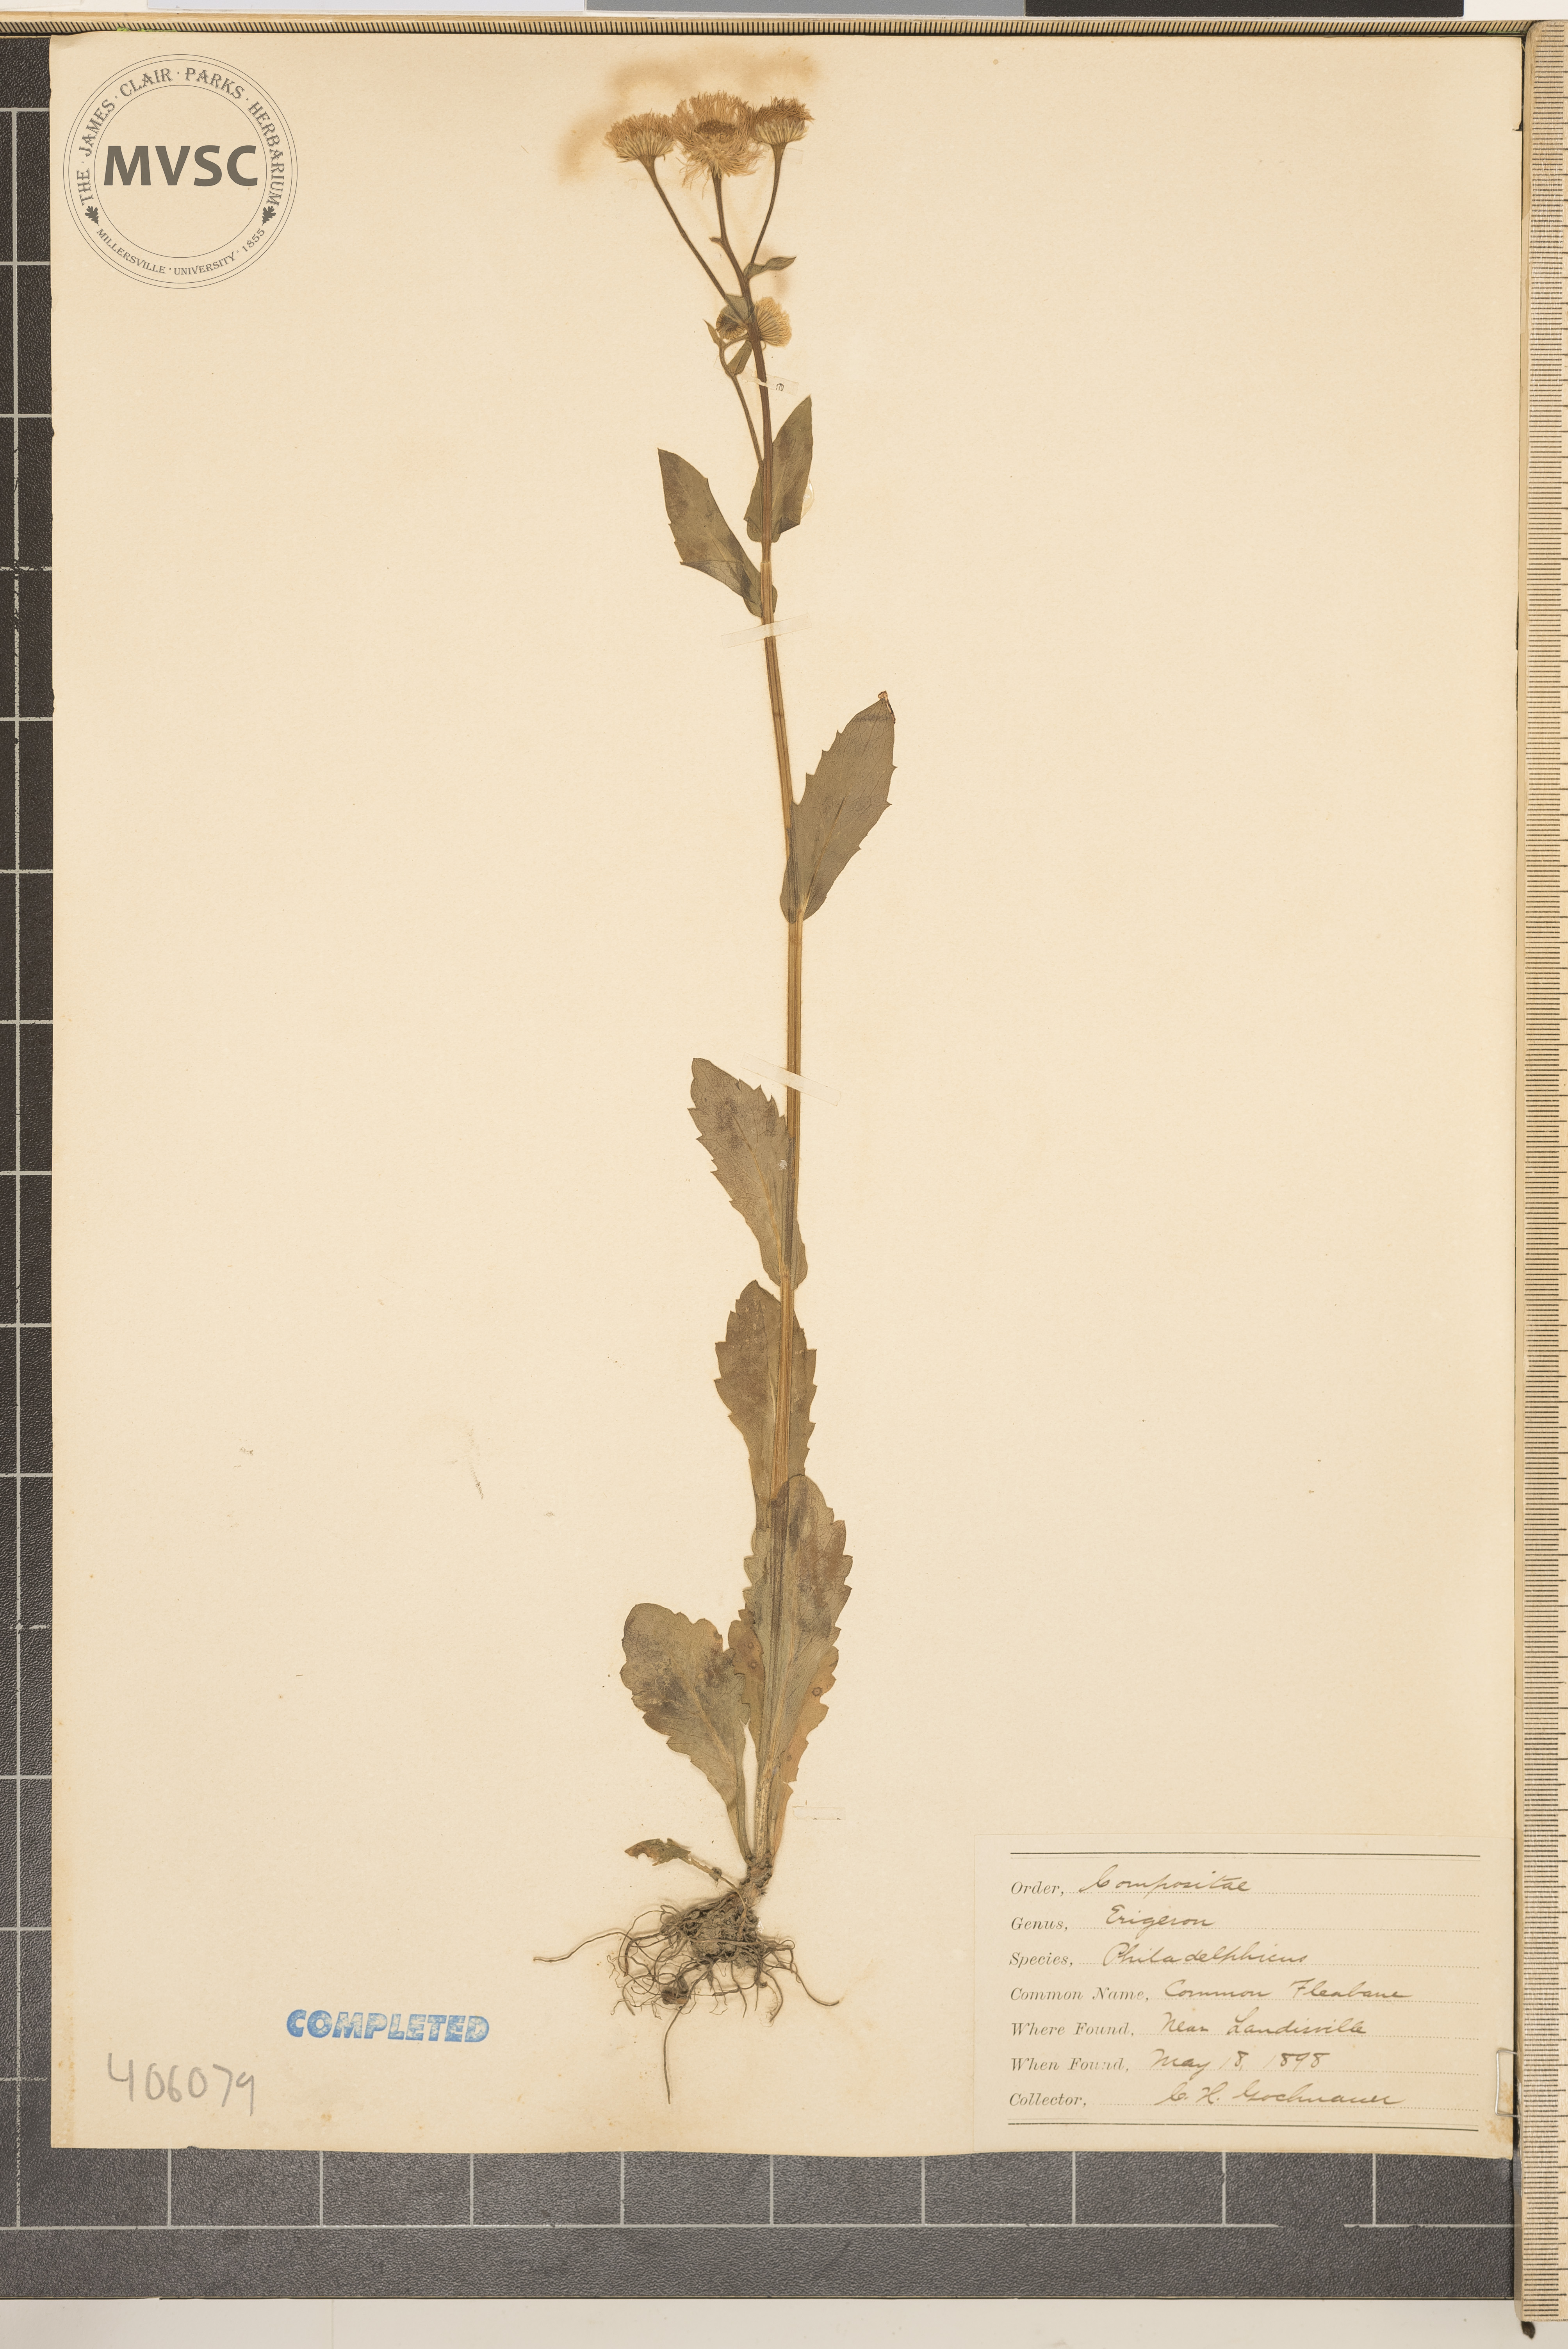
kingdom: Plantae
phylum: Tracheophyta
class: Magnoliopsida
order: Asterales
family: Asteraceae
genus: Erigeron
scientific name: Erigeron philadelphicus
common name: Robin's-plantain
